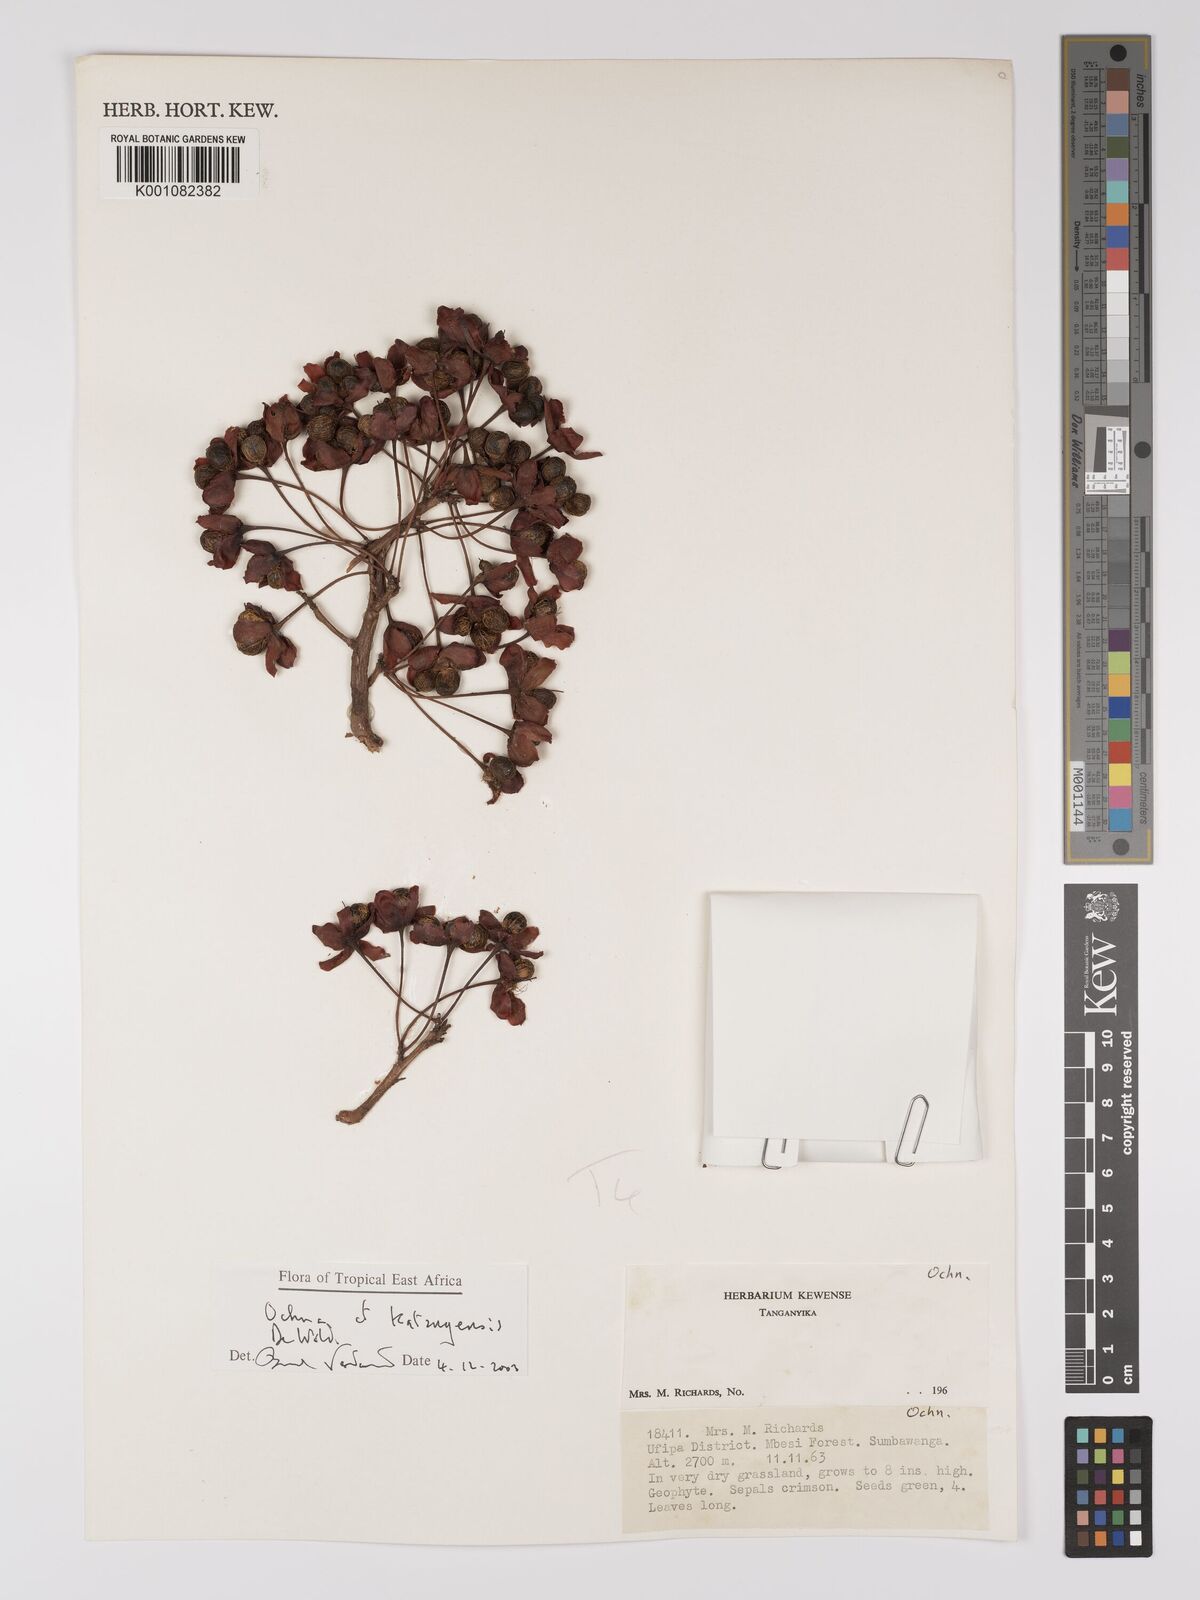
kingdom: Plantae
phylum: Tracheophyta
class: Magnoliopsida
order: Malpighiales
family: Ochnaceae
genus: Ochna
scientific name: Ochna katangensis
